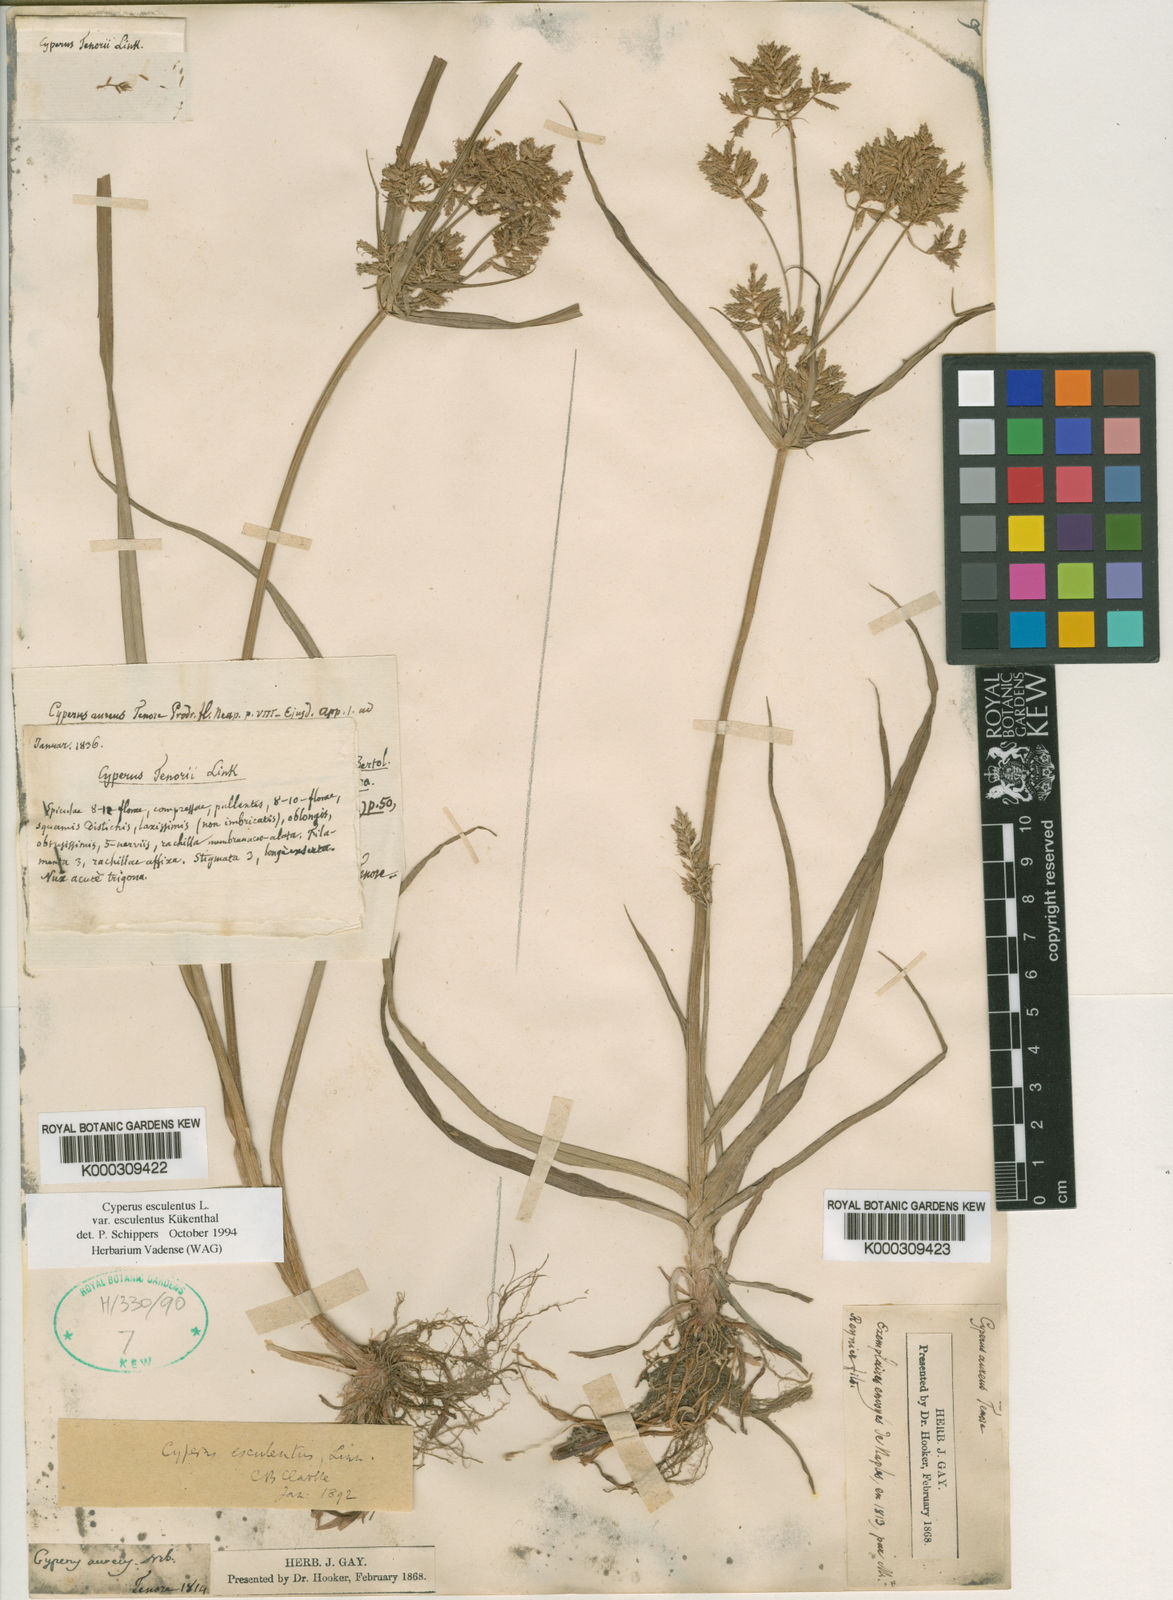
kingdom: Plantae
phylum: Tracheophyta
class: Liliopsida
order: Poales
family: Cyperaceae
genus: Cyperus
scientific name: Cyperus esculentus
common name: Yellow nutsedge
